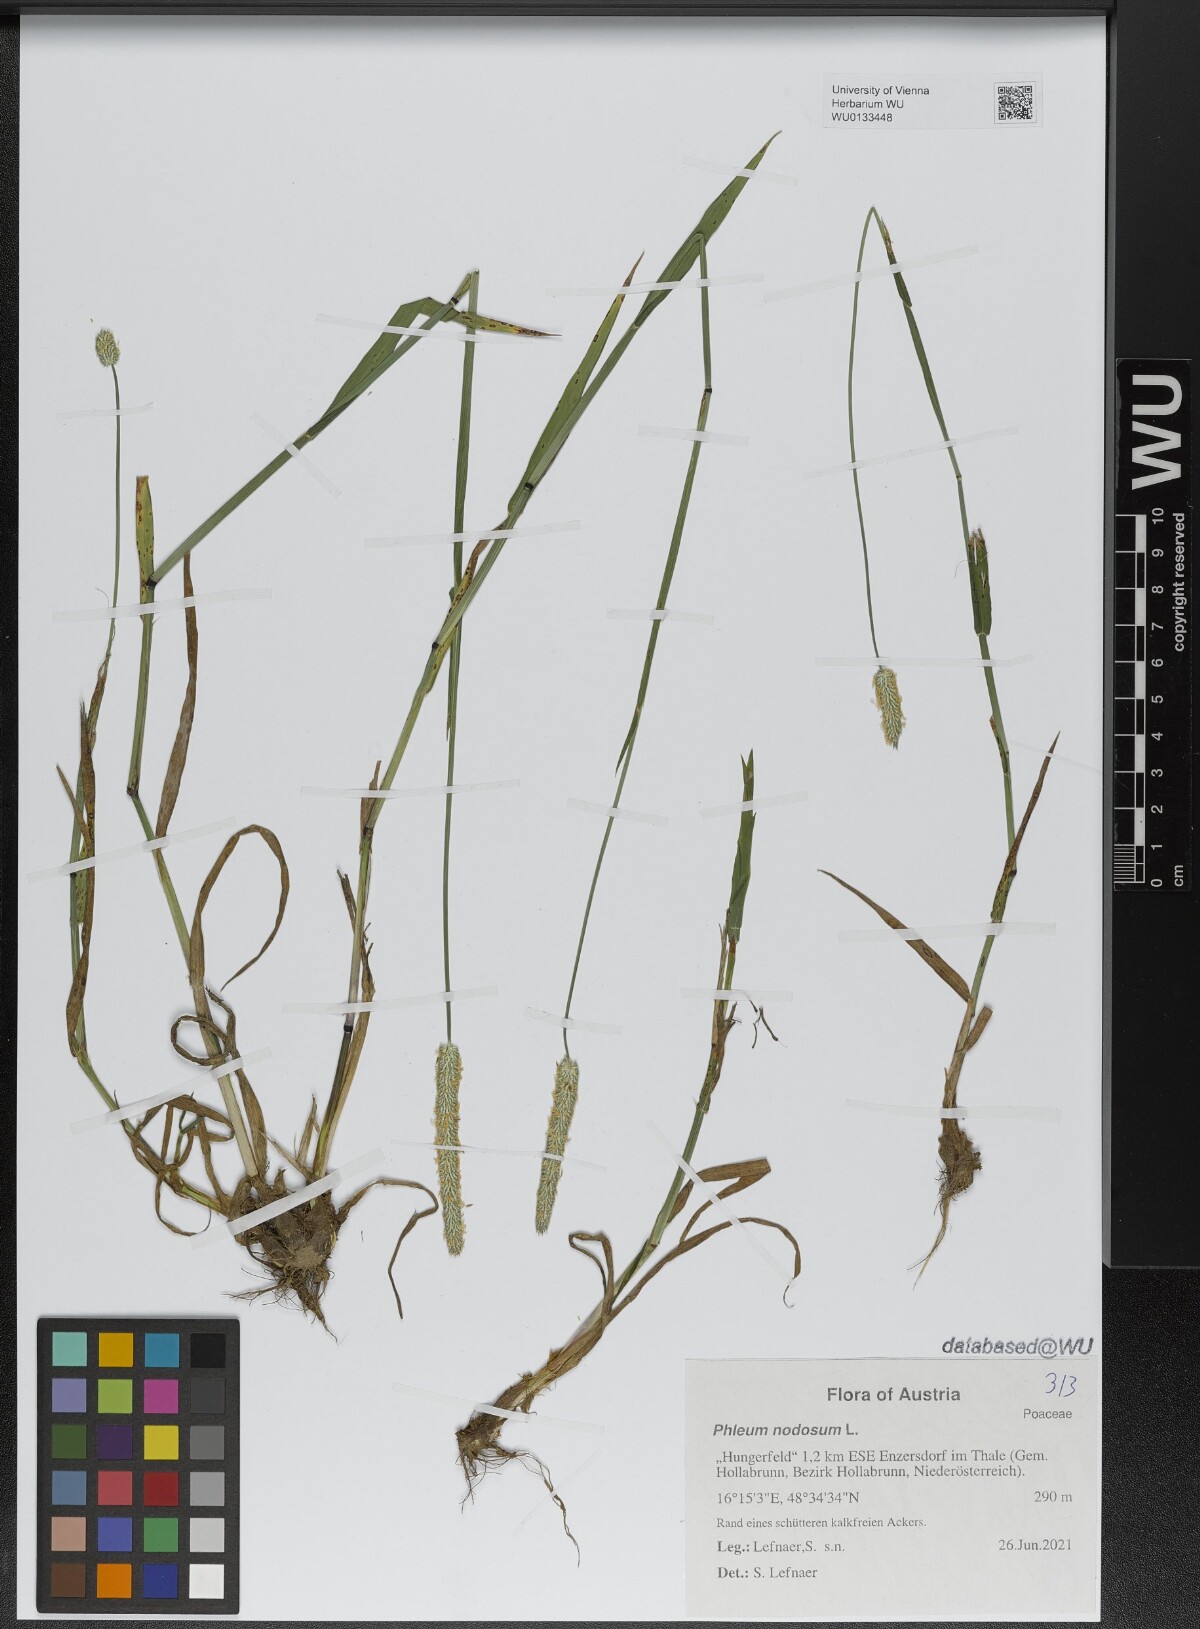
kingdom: Plantae
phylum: Tracheophyta
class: Liliopsida
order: Poales
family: Poaceae
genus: Phleum
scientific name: Phleum pratense
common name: Timothy grass
